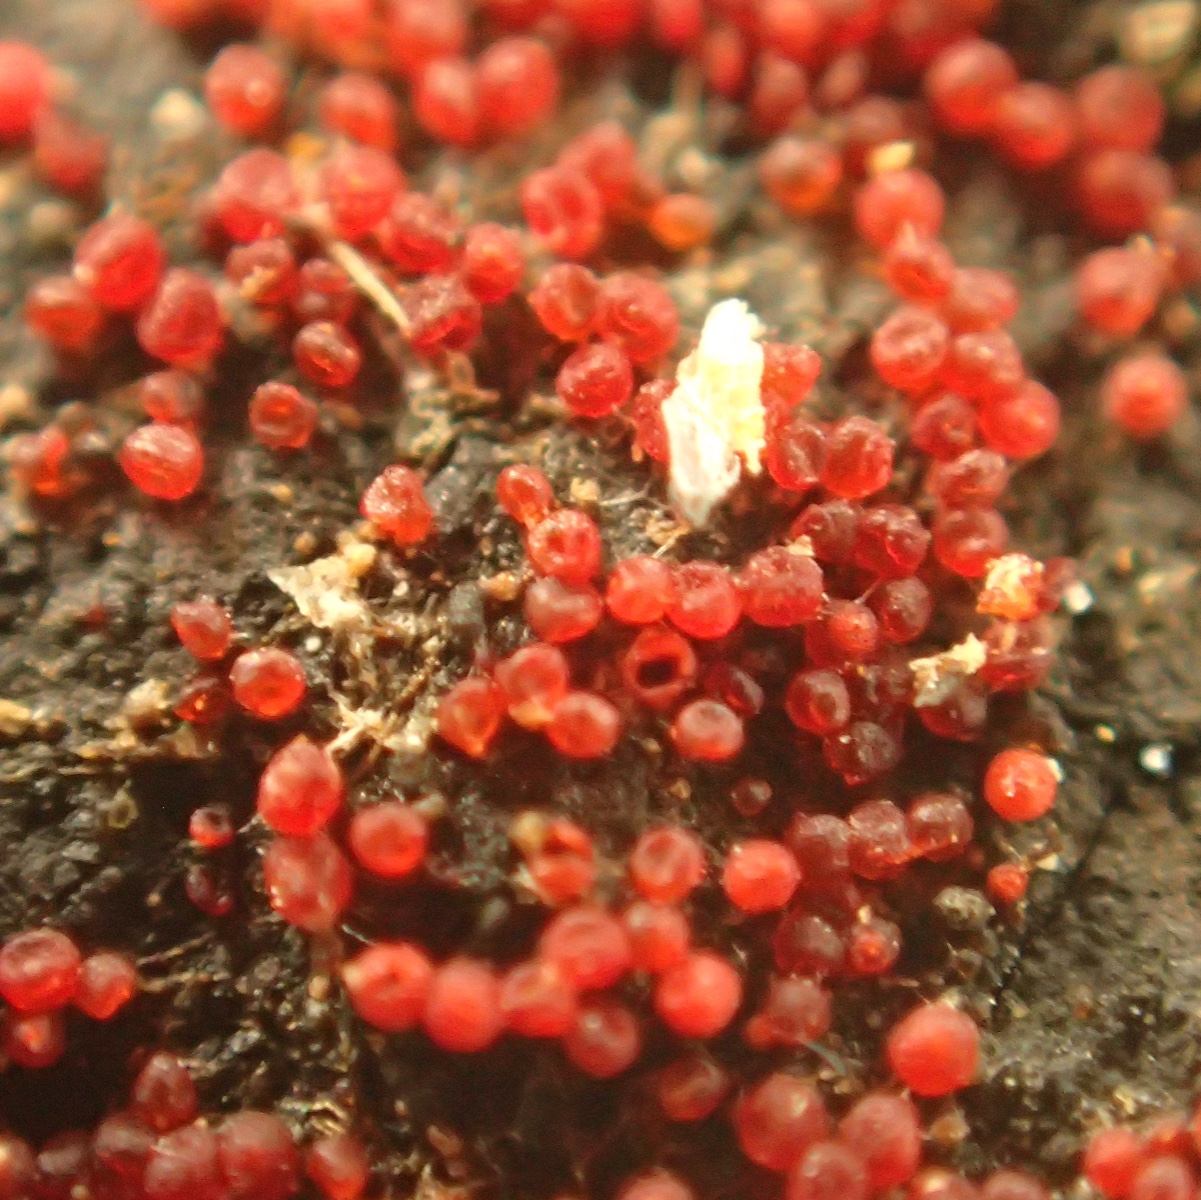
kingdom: Fungi
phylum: Ascomycota
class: Sordariomycetes
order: Hypocreales
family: Nectriaceae
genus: Dialonectria
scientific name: Dialonectria episphaeria
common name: kulskorpe-cinnobersvamp
